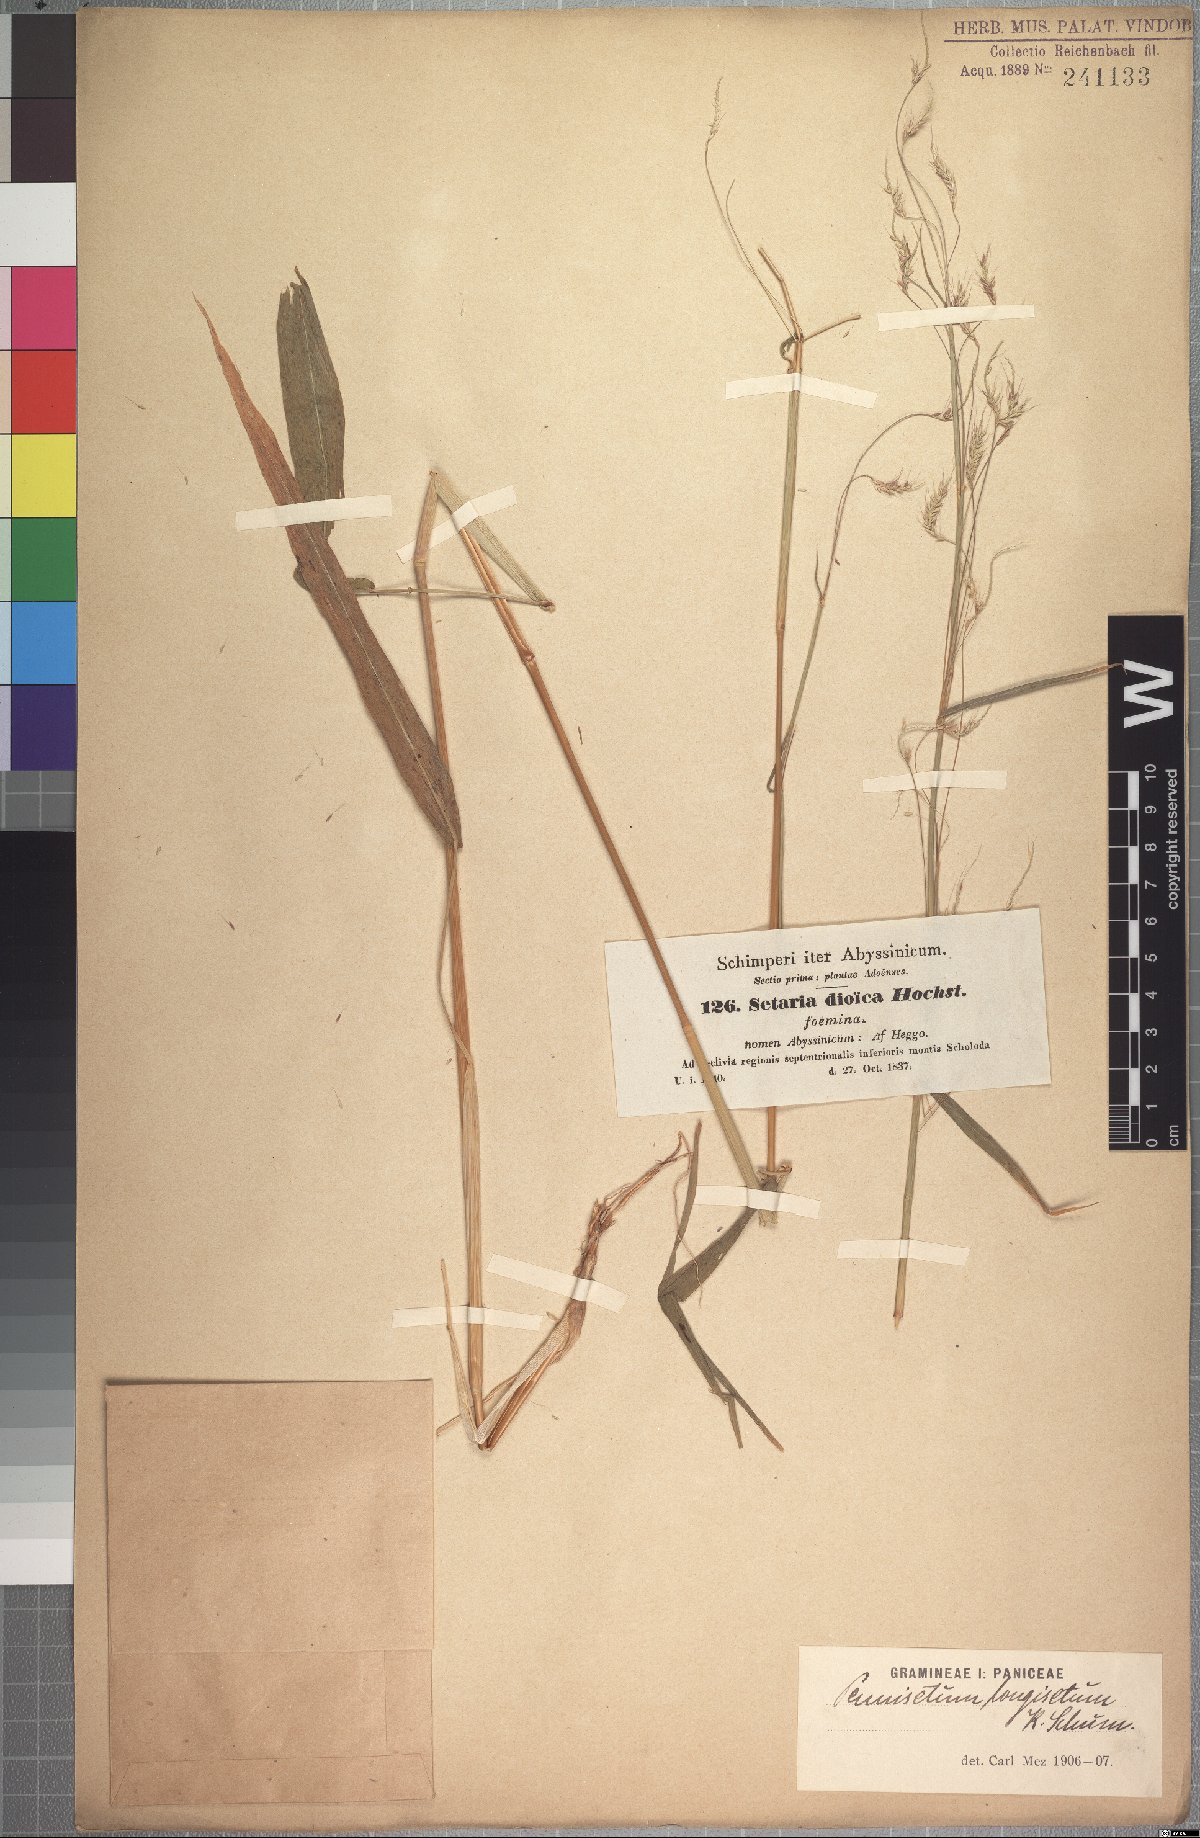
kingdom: Plantae
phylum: Tracheophyta
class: Liliopsida
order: Poales
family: Poaceae
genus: Cenchrus
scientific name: Cenchrus petiolaris
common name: Grass
